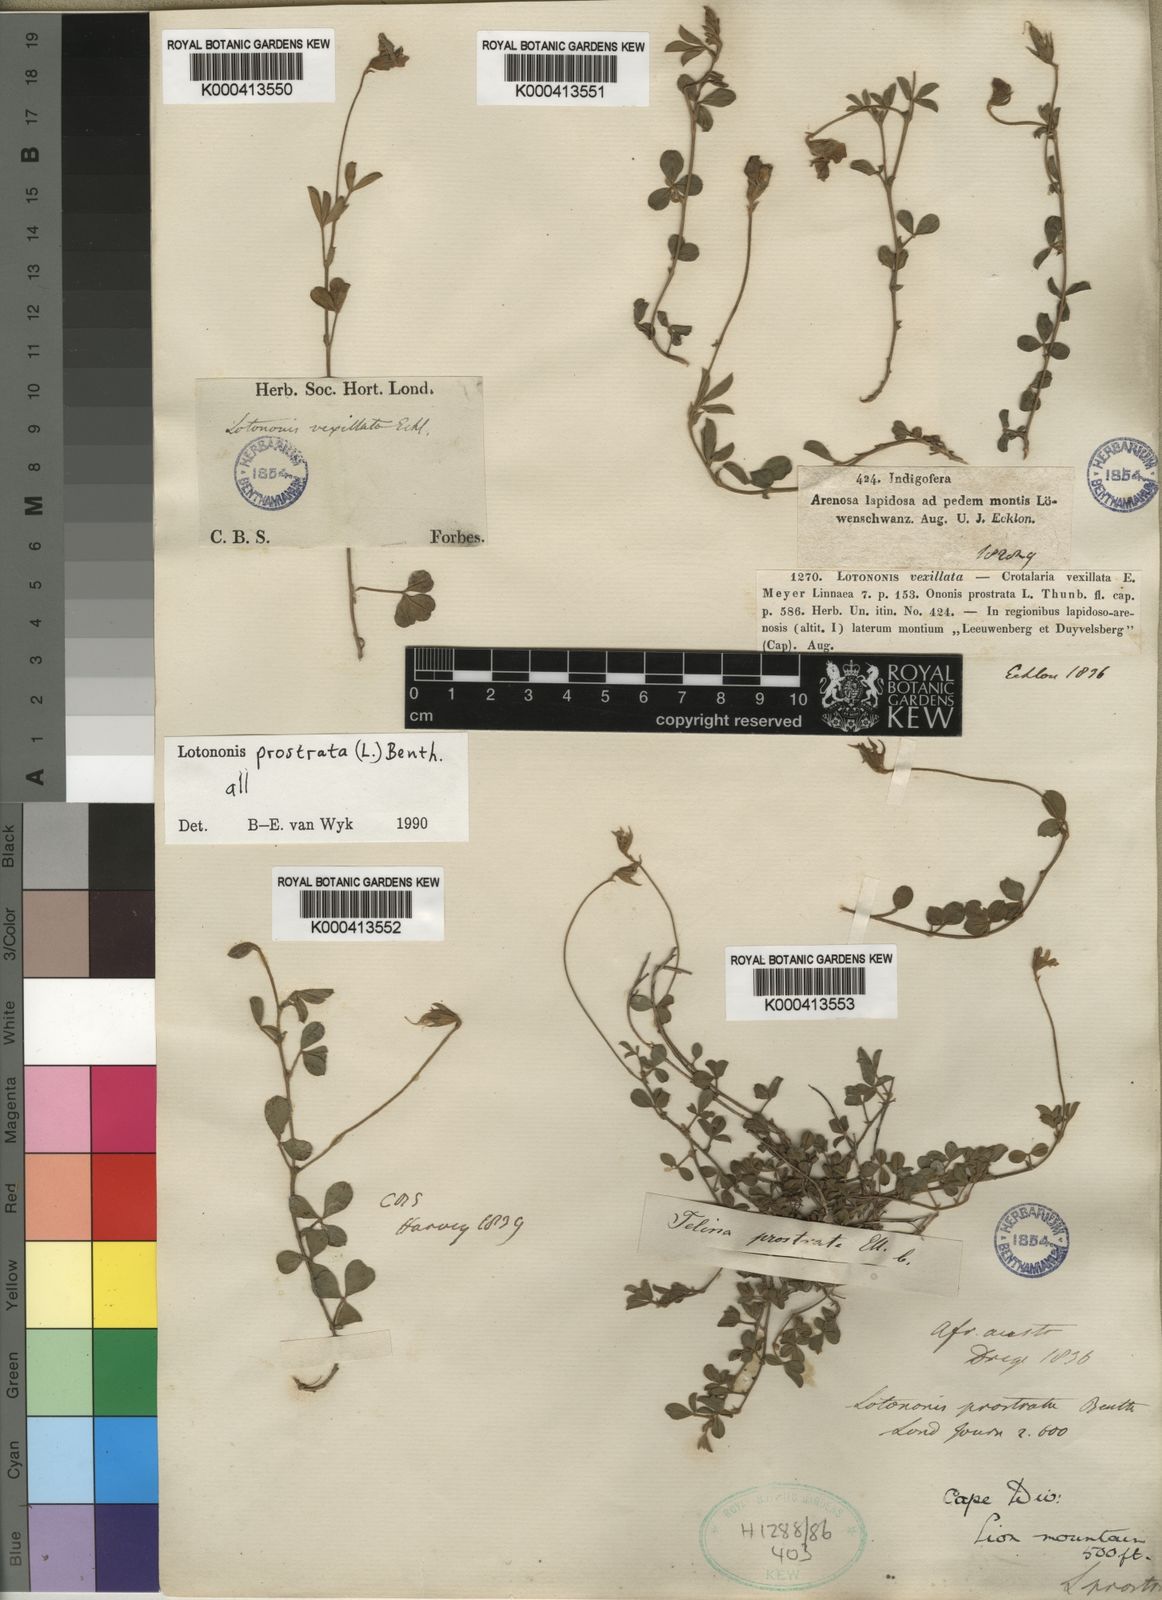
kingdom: Plantae
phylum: Tracheophyta
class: Magnoliopsida
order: Fabales
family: Fabaceae
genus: Lotononis
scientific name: Lotononis prostrata
